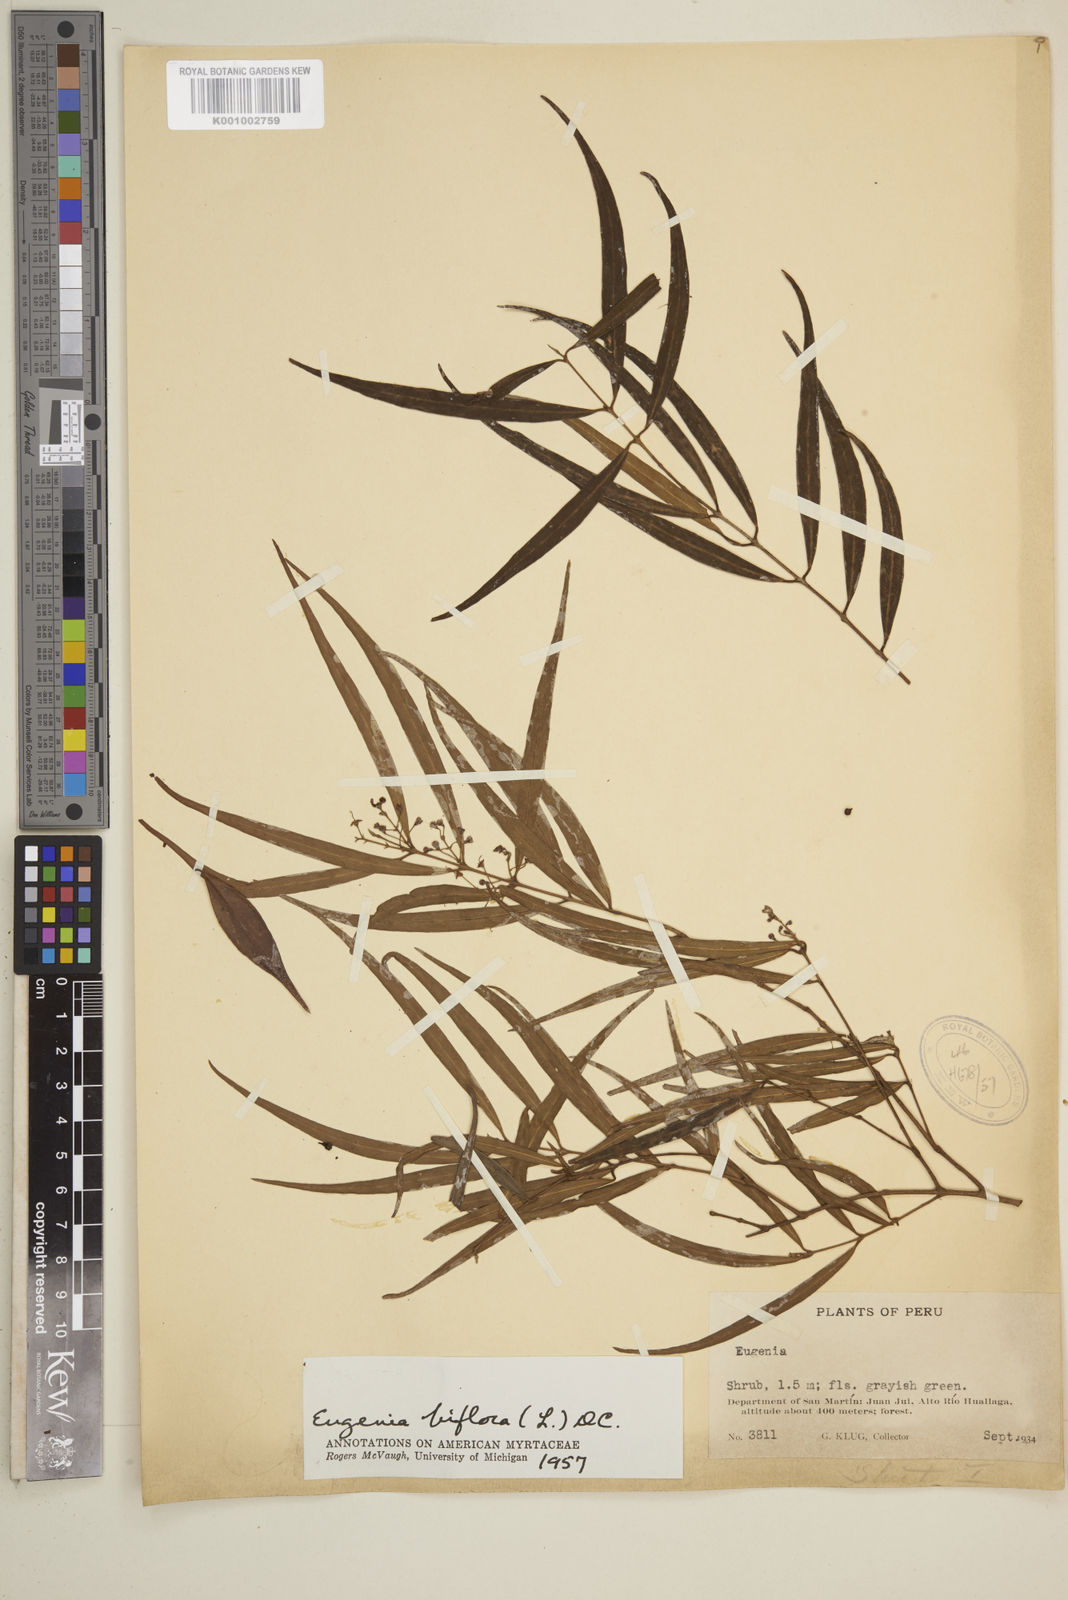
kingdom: Plantae
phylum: Tracheophyta
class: Magnoliopsida
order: Myrtales
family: Myrtaceae
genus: Eugenia
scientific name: Eugenia biflora
